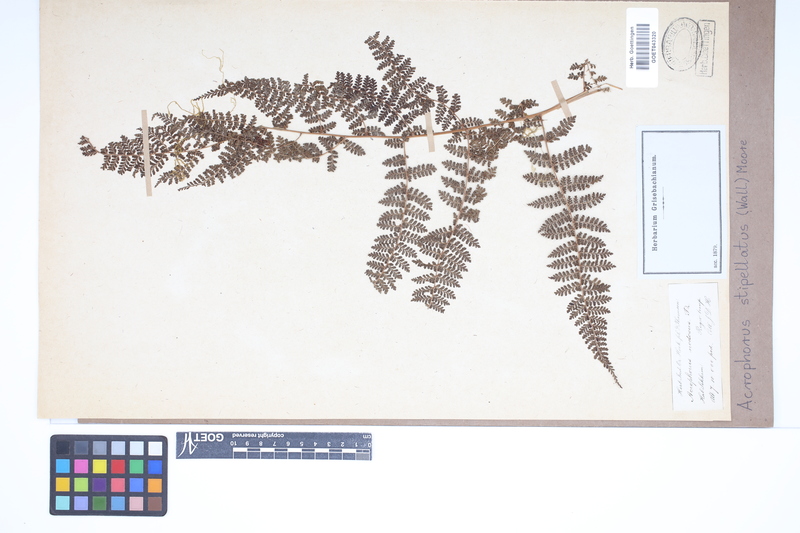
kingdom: Plantae
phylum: Tracheophyta
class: Polypodiopsida
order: Polypodiales
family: Dryopteridaceae
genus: Dryopteris
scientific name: Dryopteris nodosa
